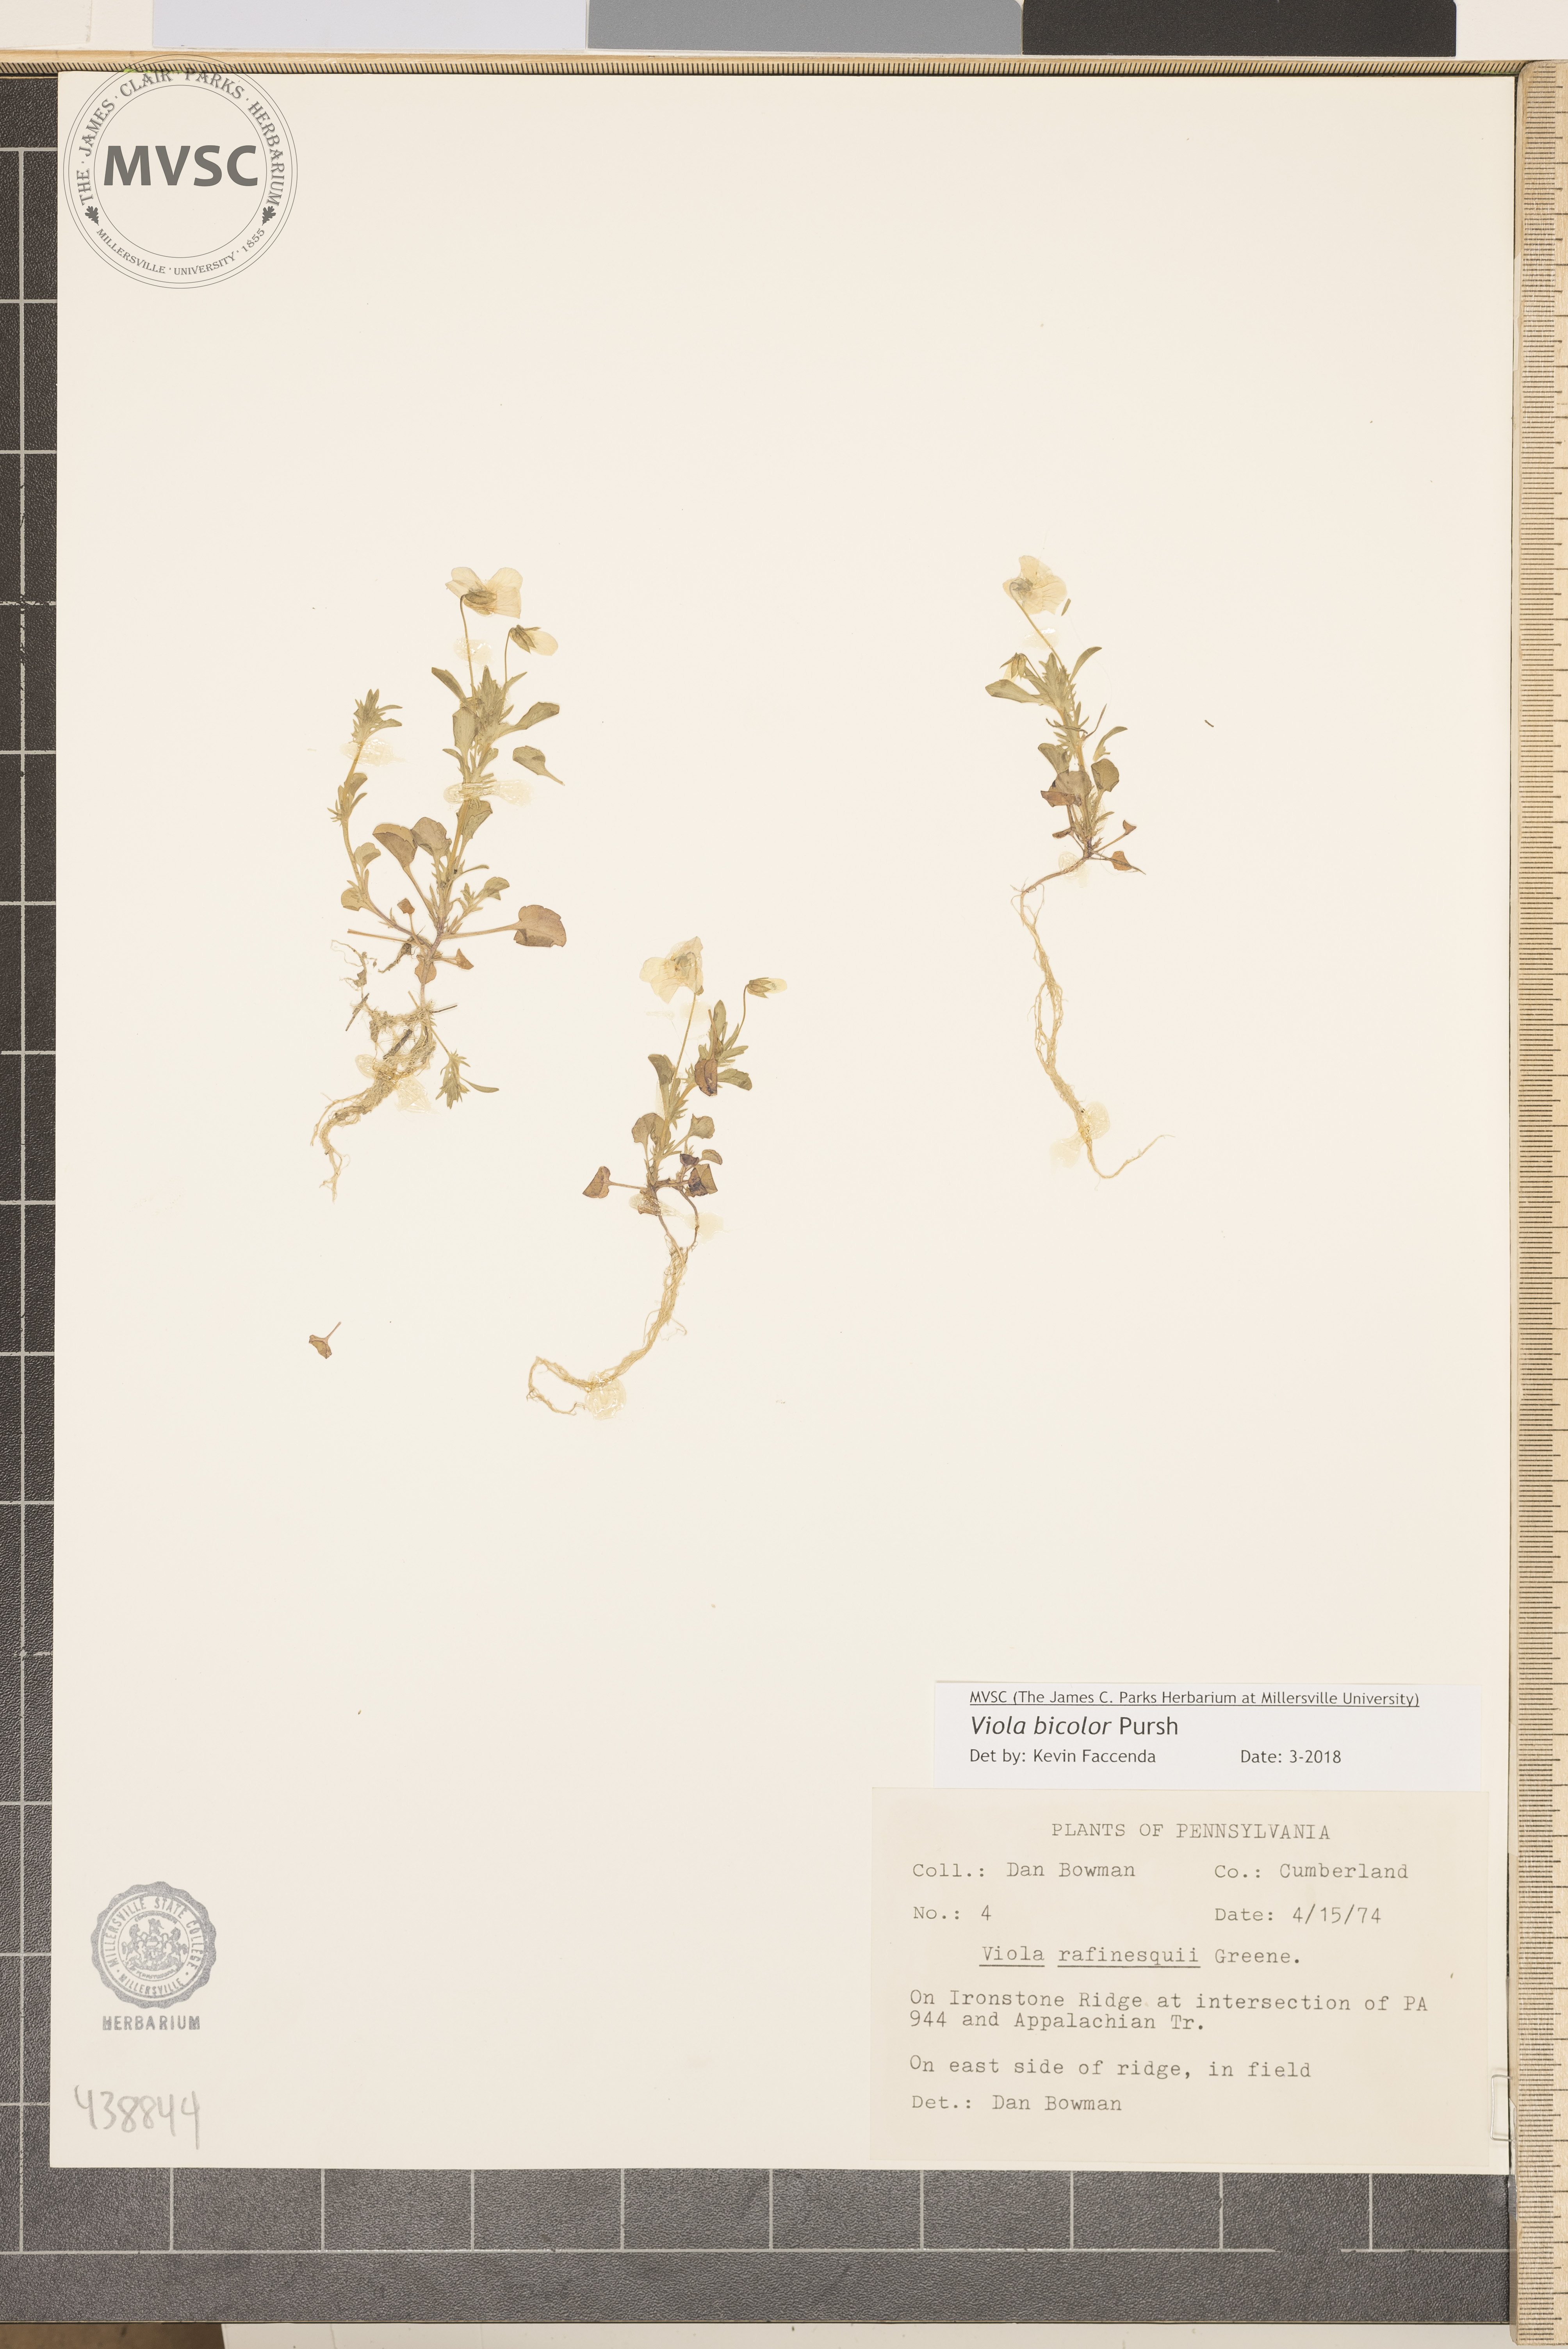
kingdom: Plantae
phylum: Tracheophyta
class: Magnoliopsida
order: Malpighiales
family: Violaceae
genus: Viola
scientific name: Viola rafinesquei
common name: American field pansy
